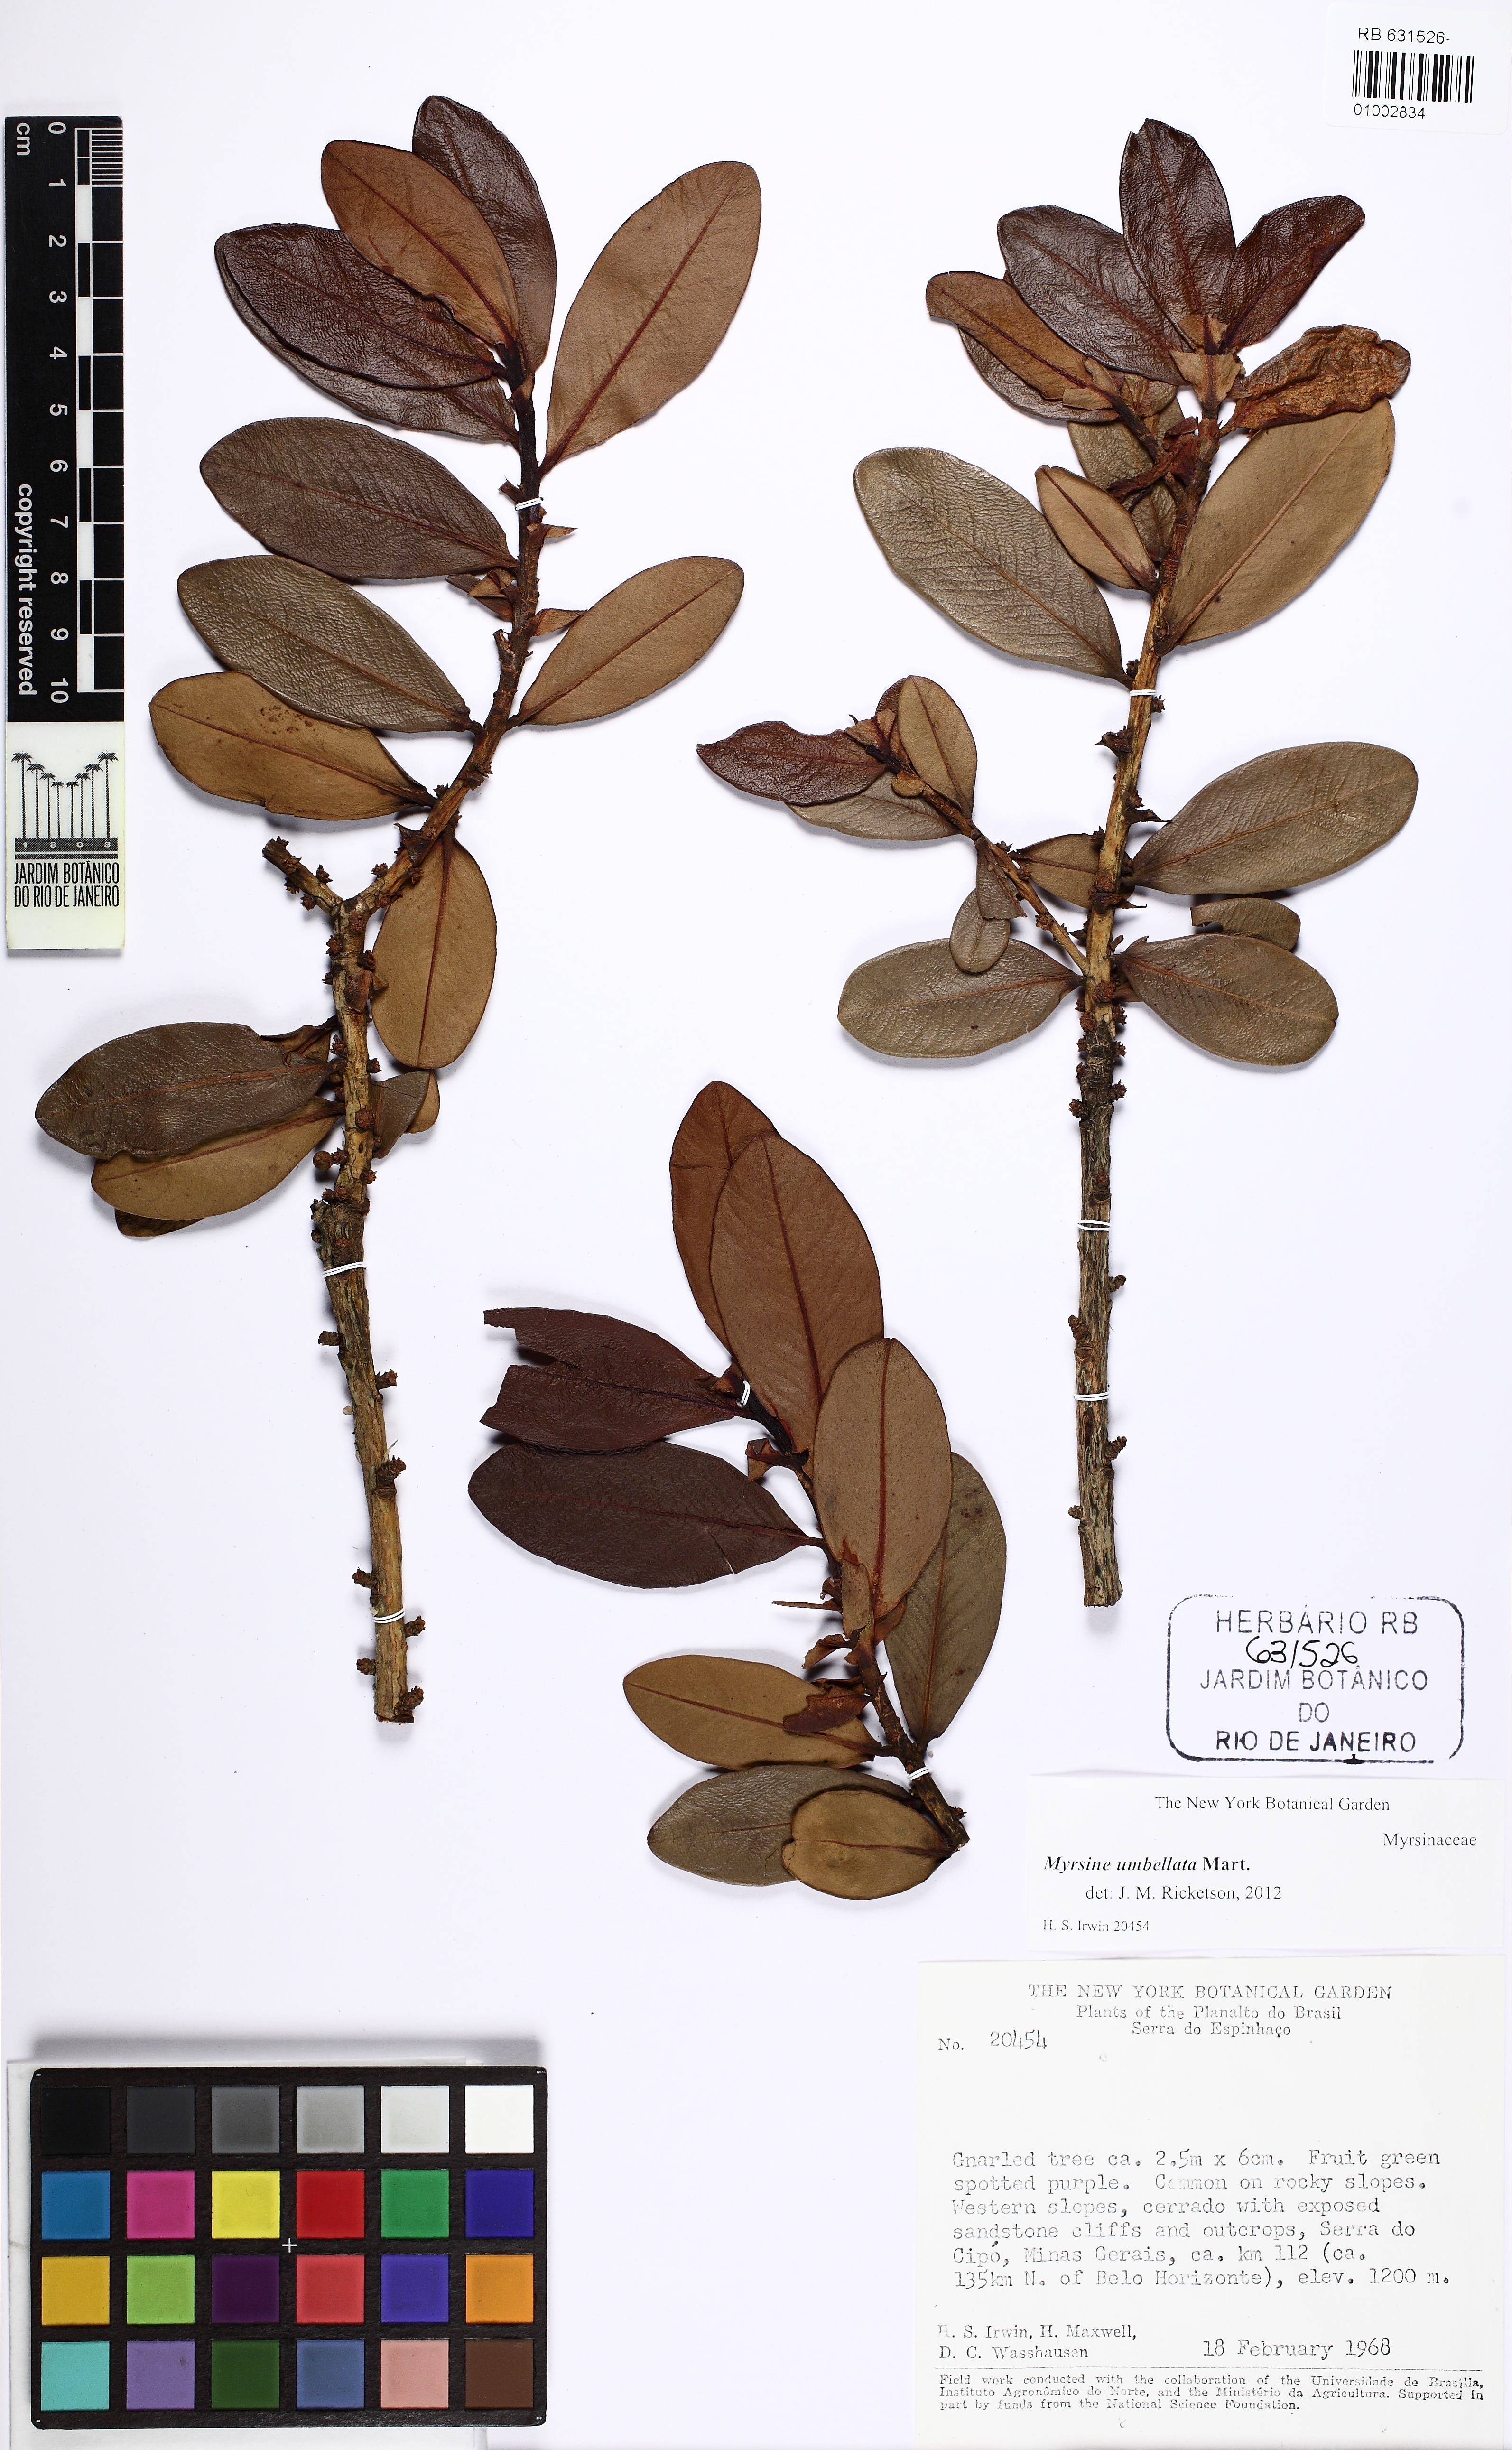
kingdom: Plantae
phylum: Tracheophyta
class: Magnoliopsida
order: Ericales
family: Primulaceae
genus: Myrsine
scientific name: Myrsine umbellata
